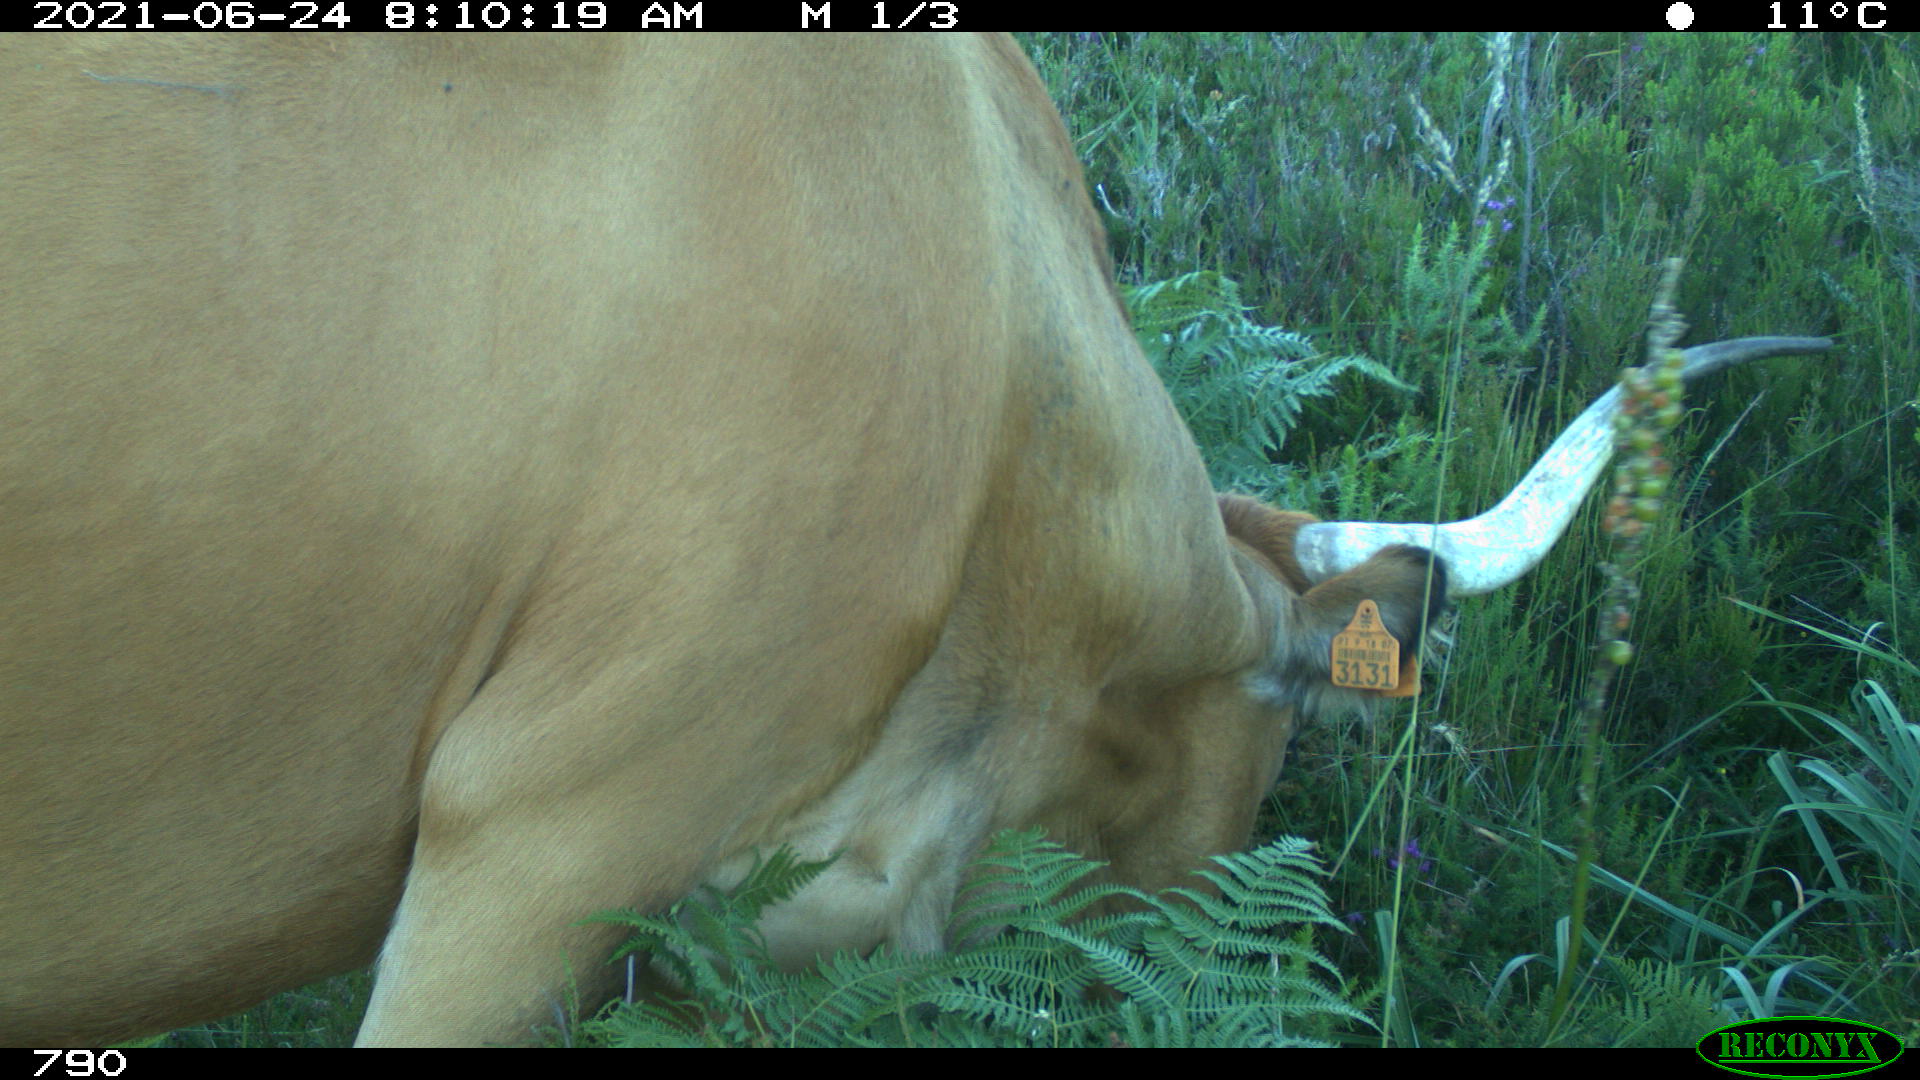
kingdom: Animalia
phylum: Chordata
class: Mammalia
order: Artiodactyla
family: Bovidae
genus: Bos
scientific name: Bos taurus
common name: Domesticated cattle
